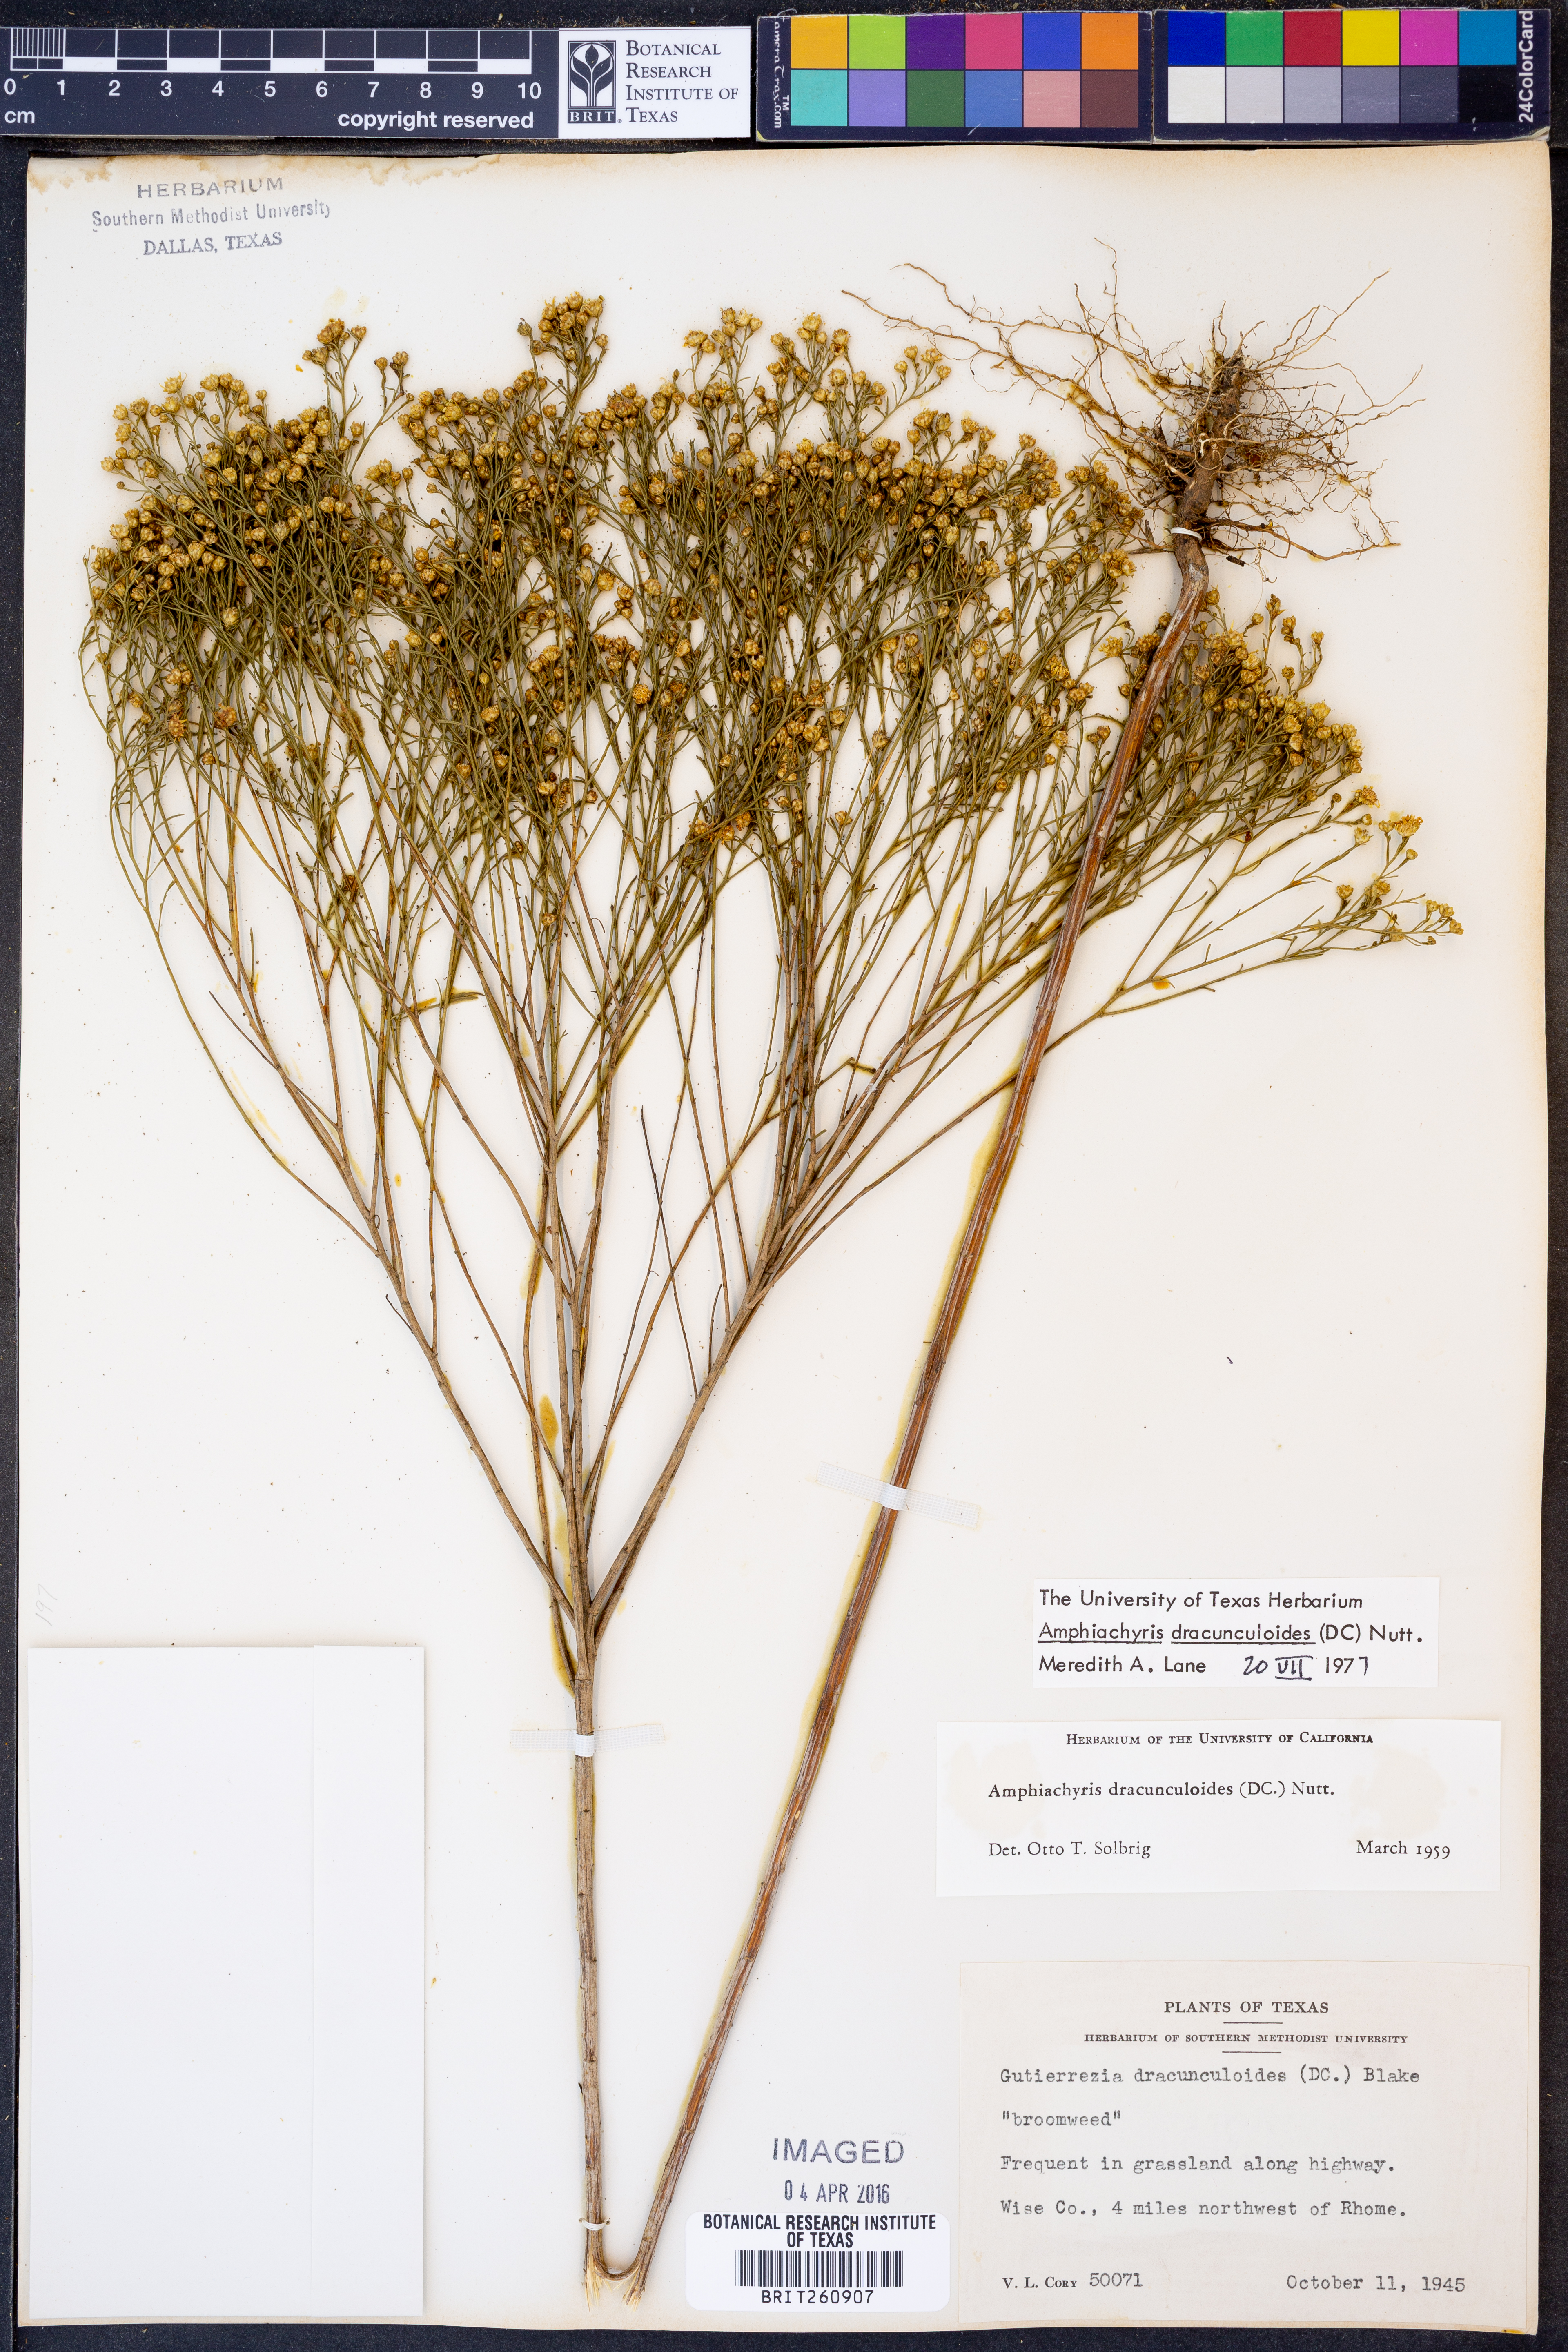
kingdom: Plantae
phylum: Tracheophyta
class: Magnoliopsida
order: Asterales
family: Asteraceae
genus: Amphiachyris
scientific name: Amphiachyris dracunculoides
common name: Broomweed
